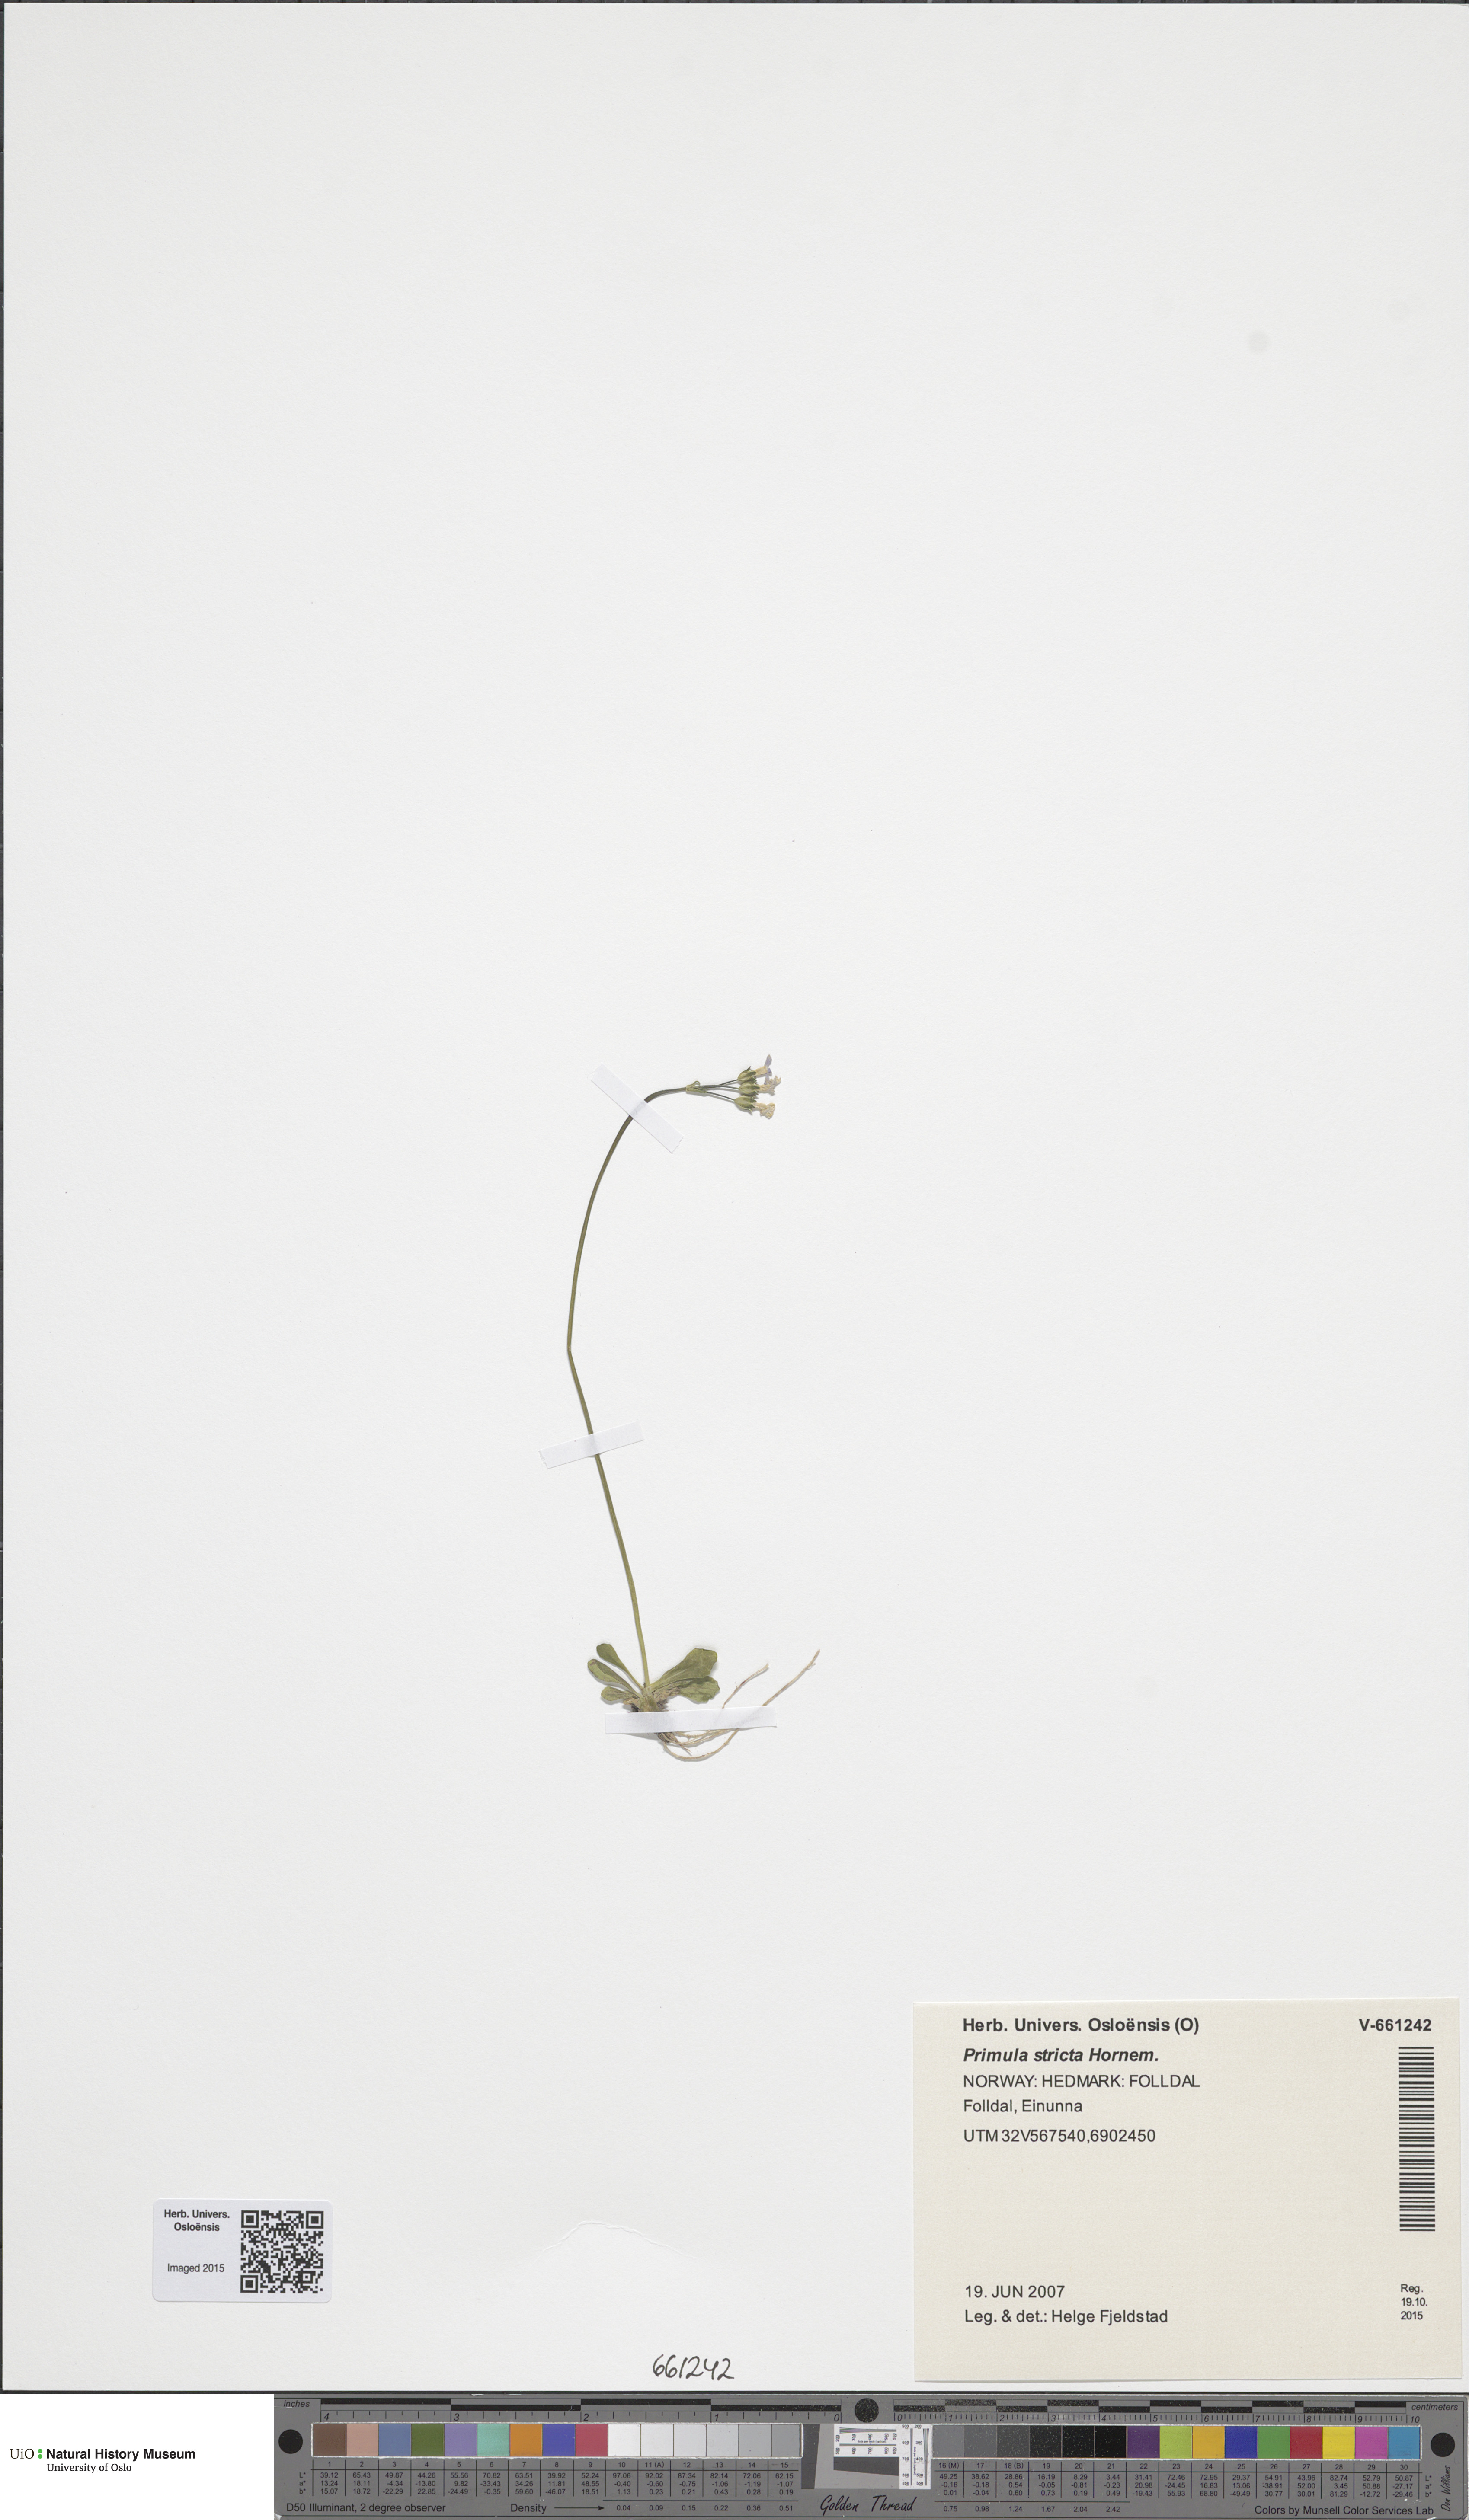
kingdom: Plantae
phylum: Tracheophyta
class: Magnoliopsida
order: Ericales
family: Primulaceae
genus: Primula
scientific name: Primula stricta
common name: Coastal primrose
